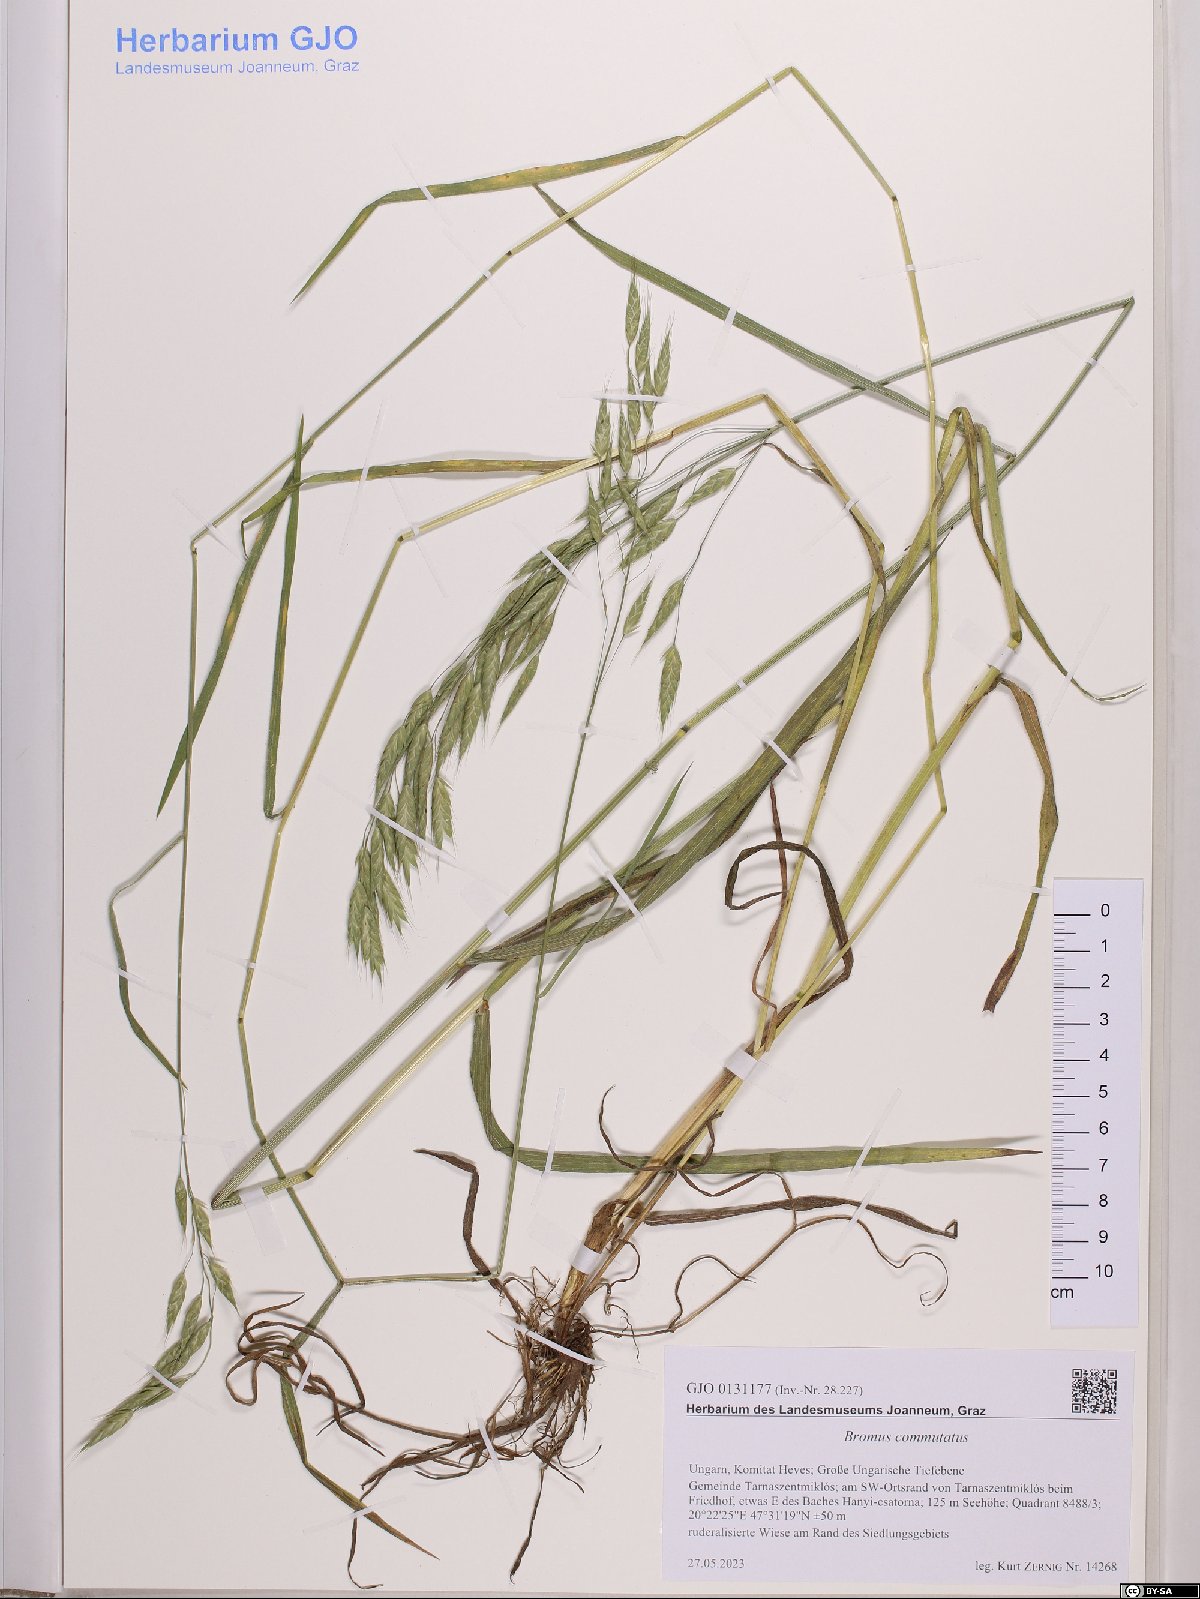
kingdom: Plantae
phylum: Tracheophyta
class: Liliopsida
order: Poales
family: Poaceae
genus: Bromus
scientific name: Bromus commutatus
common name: Meadow brome
